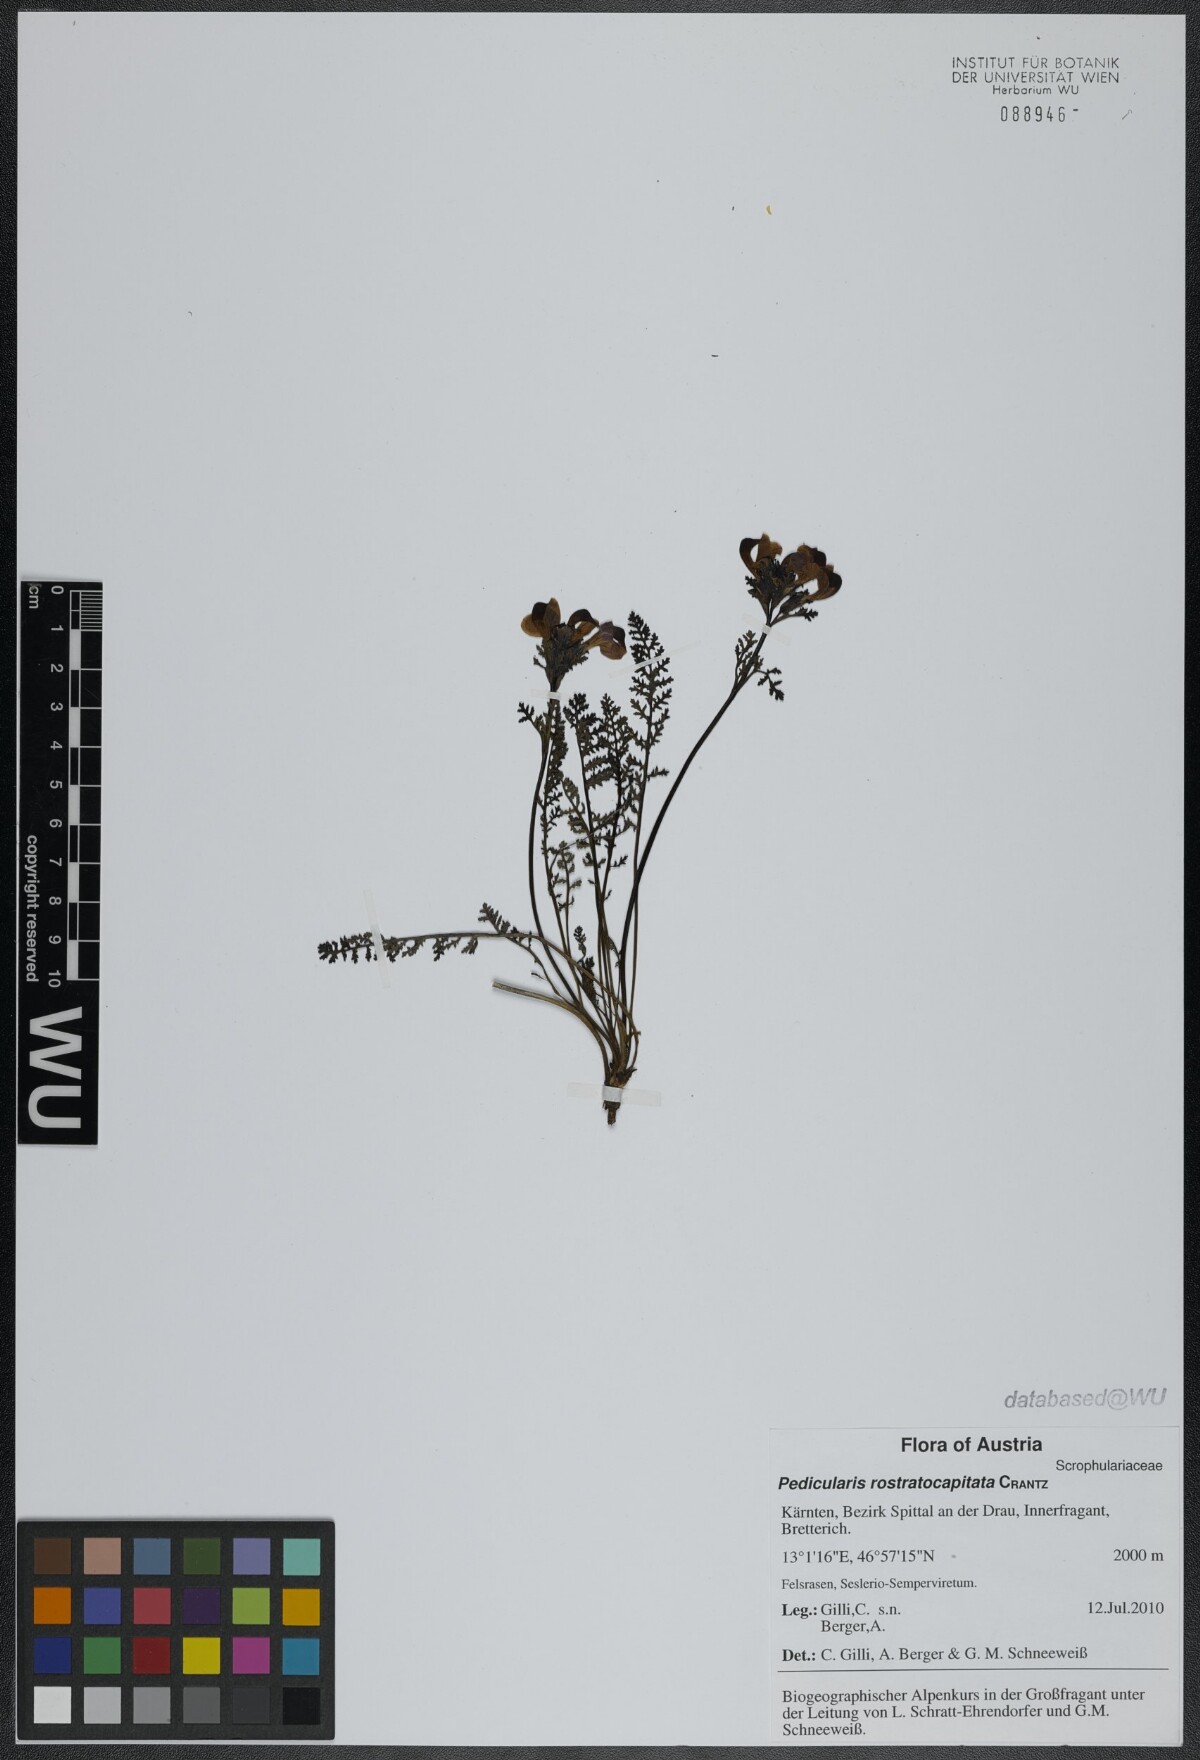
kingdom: Plantae
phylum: Tracheophyta
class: Magnoliopsida
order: Lamiales
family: Orobanchaceae
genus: Pedicularis
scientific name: Pedicularis rostratocapitata
